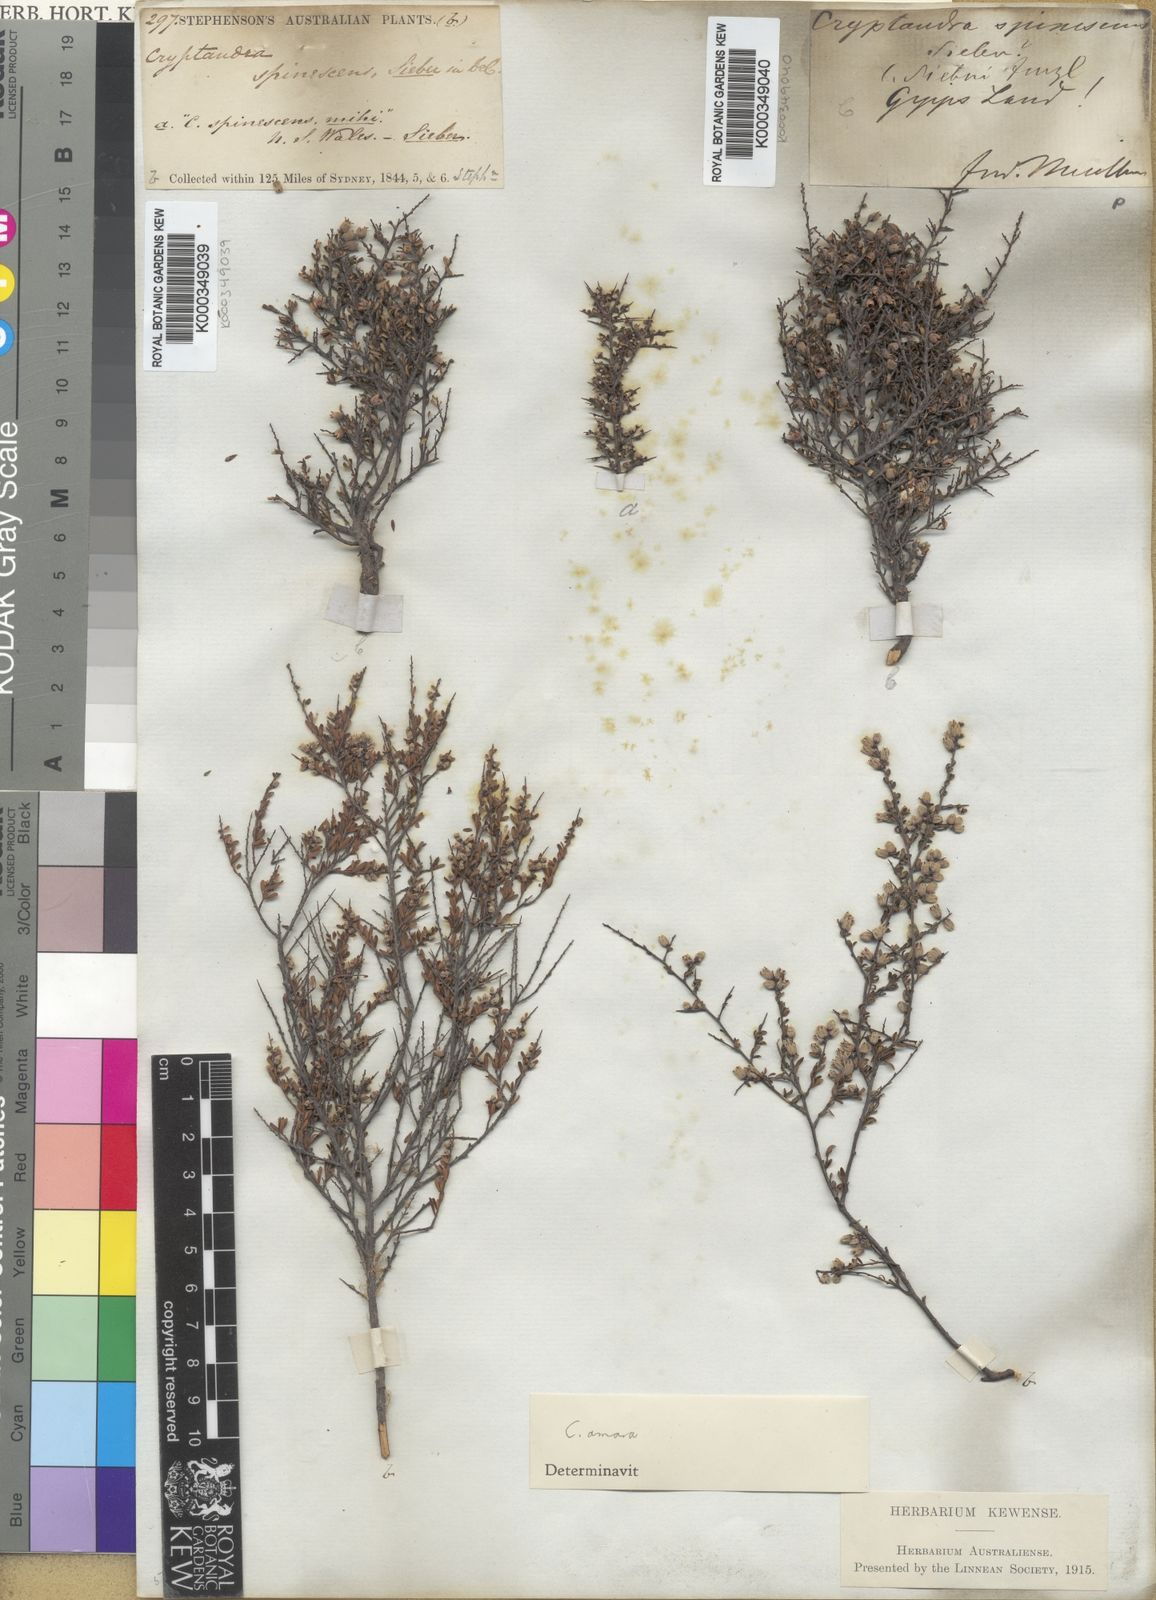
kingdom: Plantae
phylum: Tracheophyta
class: Magnoliopsida
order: Rosales
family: Rhamnaceae
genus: Cryptandra
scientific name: Cryptandra amara
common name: Bitter cryptandra
